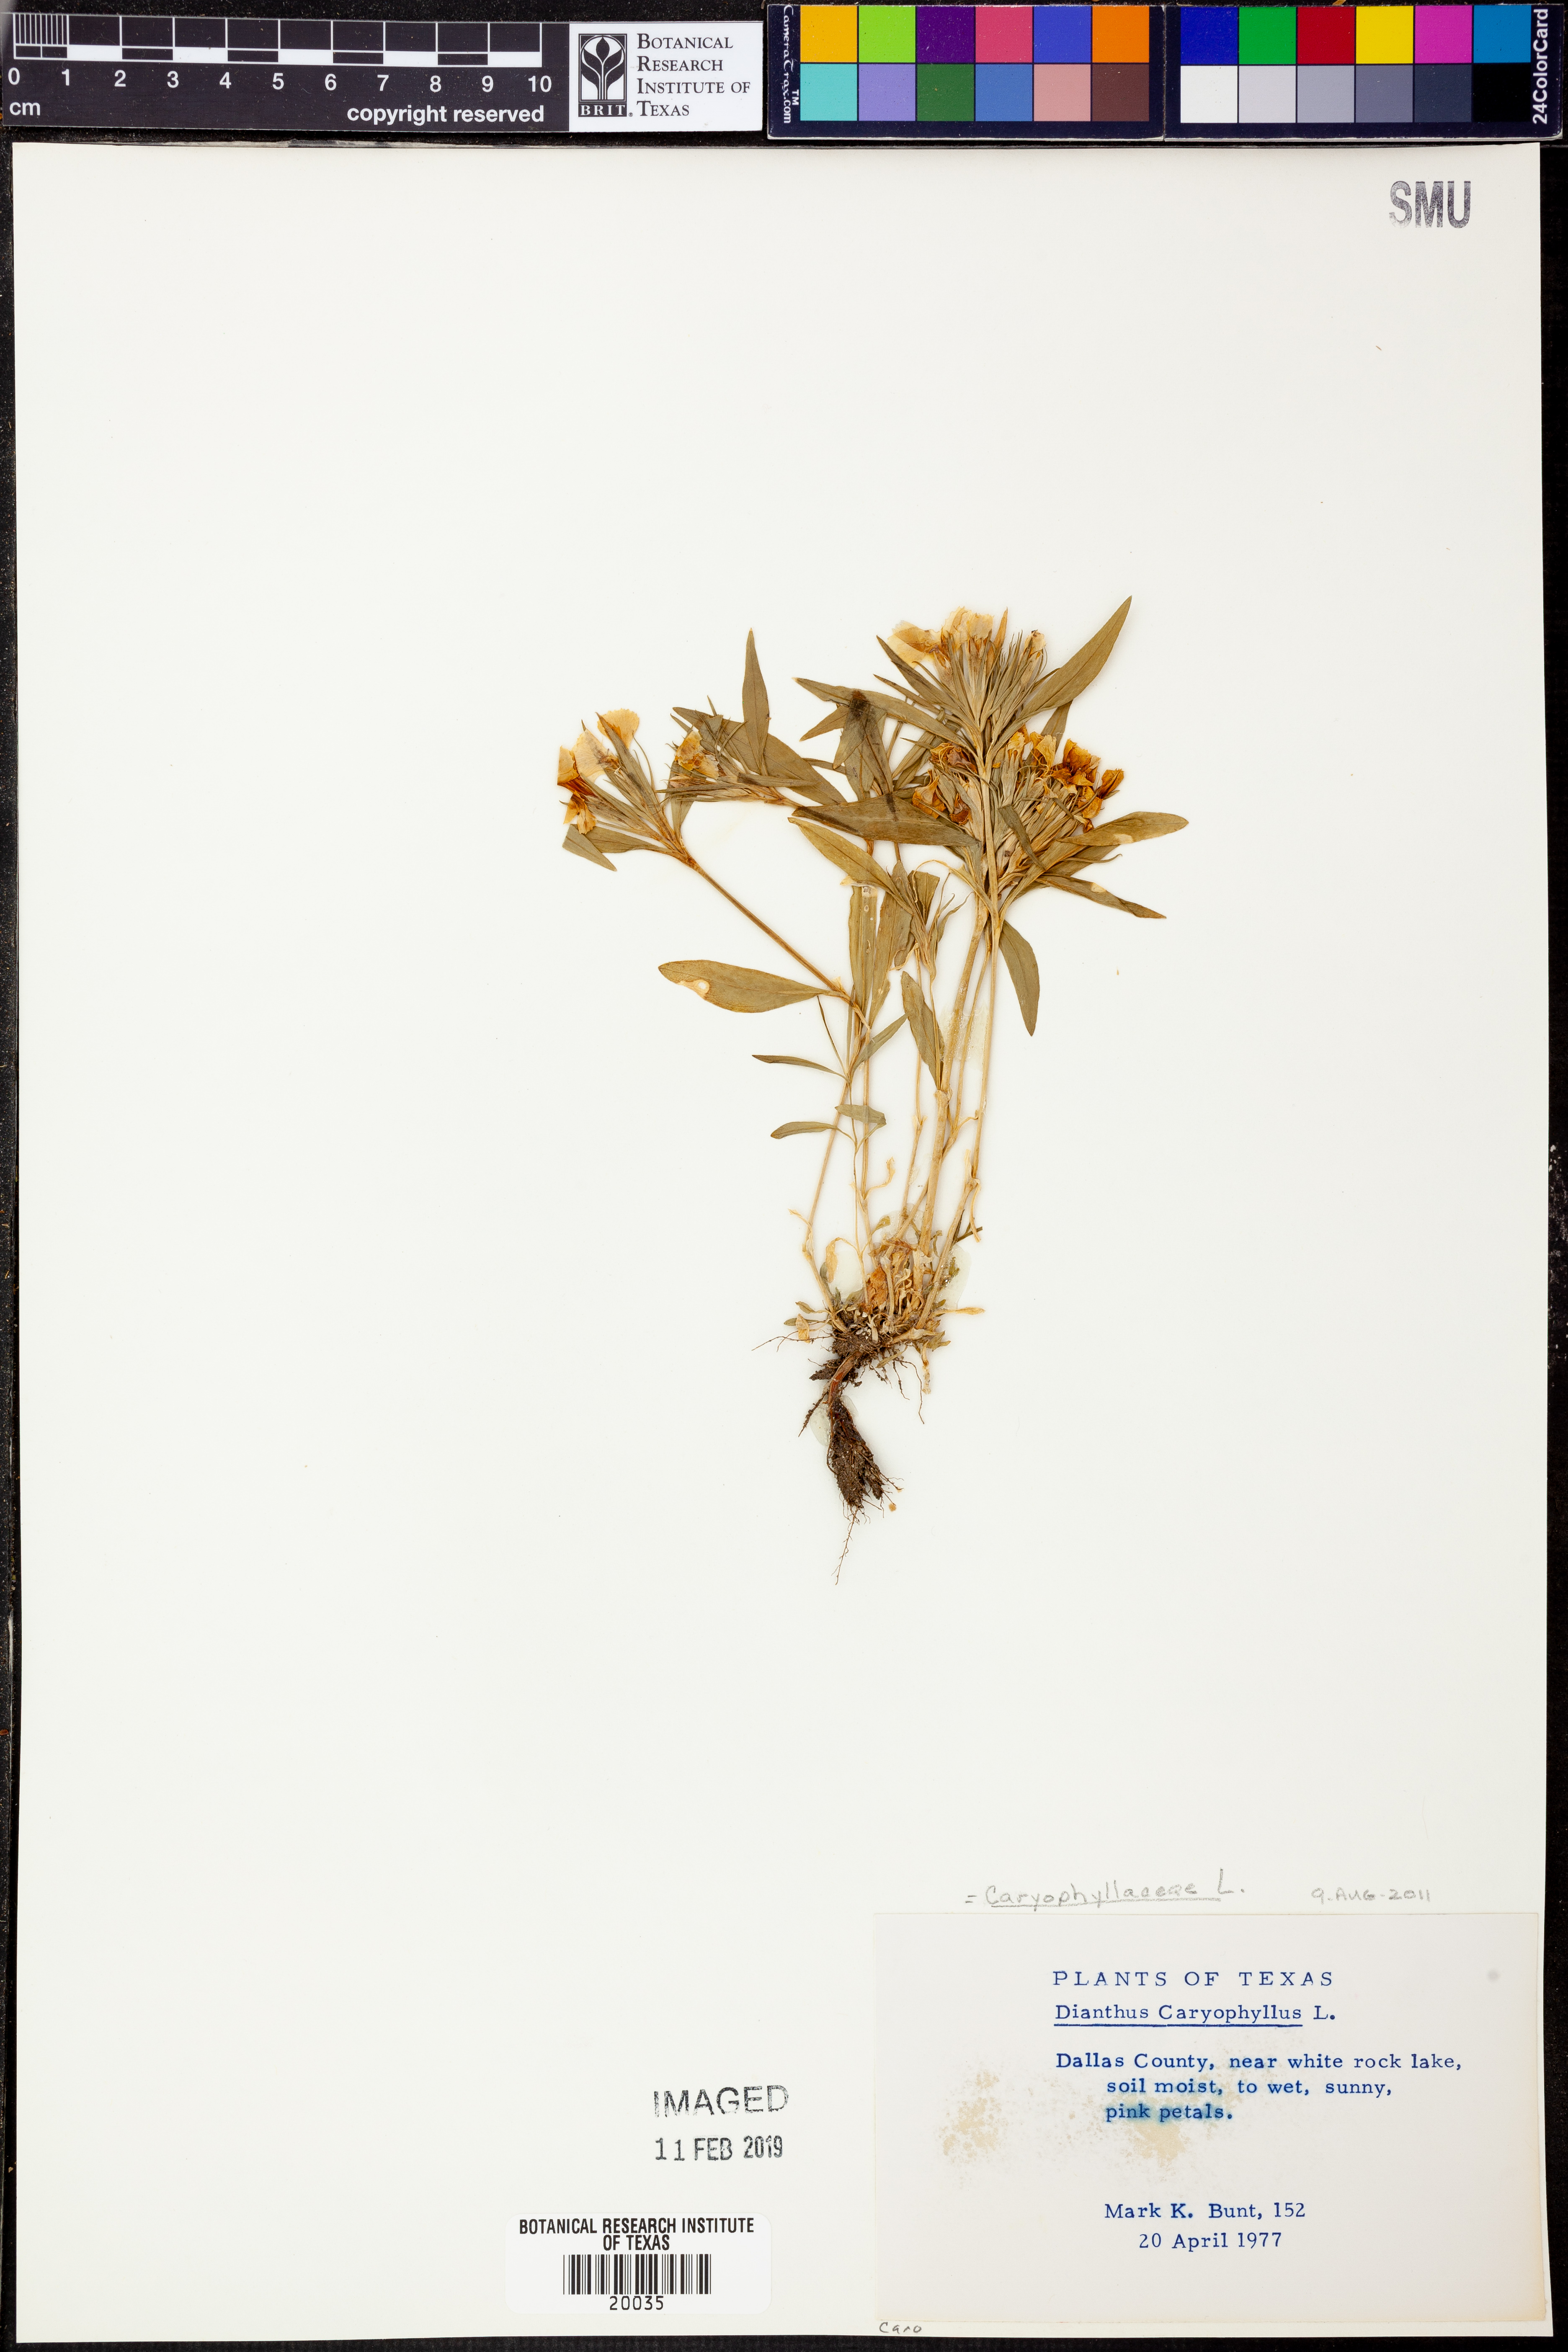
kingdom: Plantae
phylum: Tracheophyta
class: Magnoliopsida
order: Caryophyllales
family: Caryophyllaceae
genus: Dianthus
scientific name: Dianthus caryophyllus
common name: Clove pink
